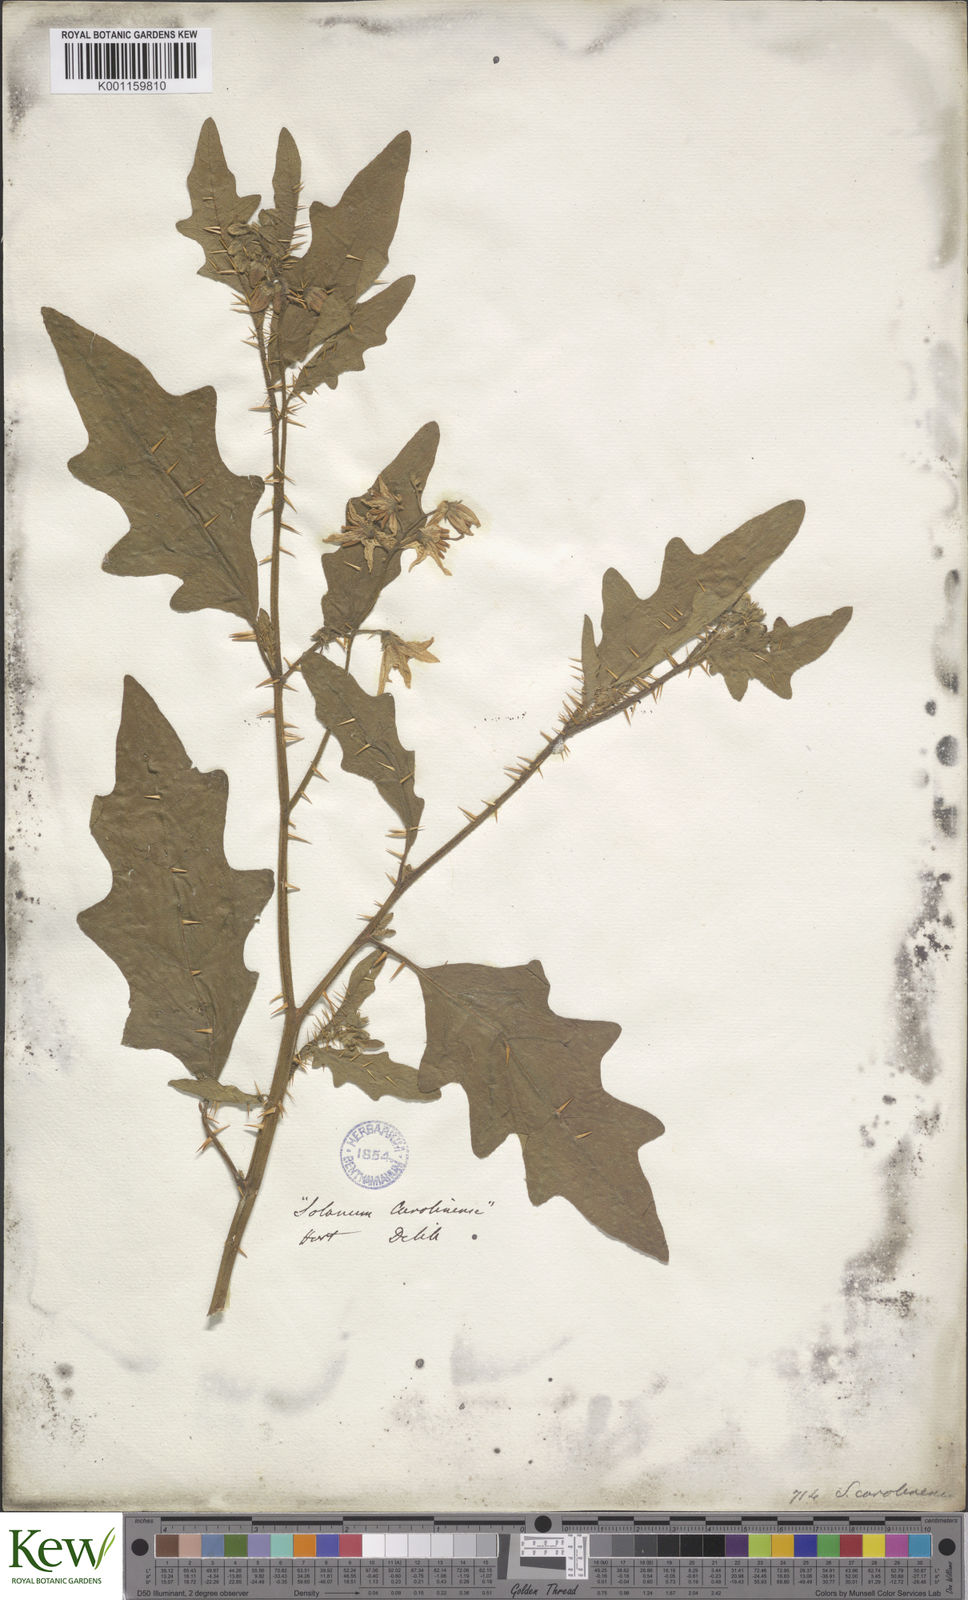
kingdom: Plantae
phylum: Tracheophyta
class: Magnoliopsida
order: Solanales
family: Solanaceae
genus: Solanum
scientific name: Solanum carolinense
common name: Horse-nettle
